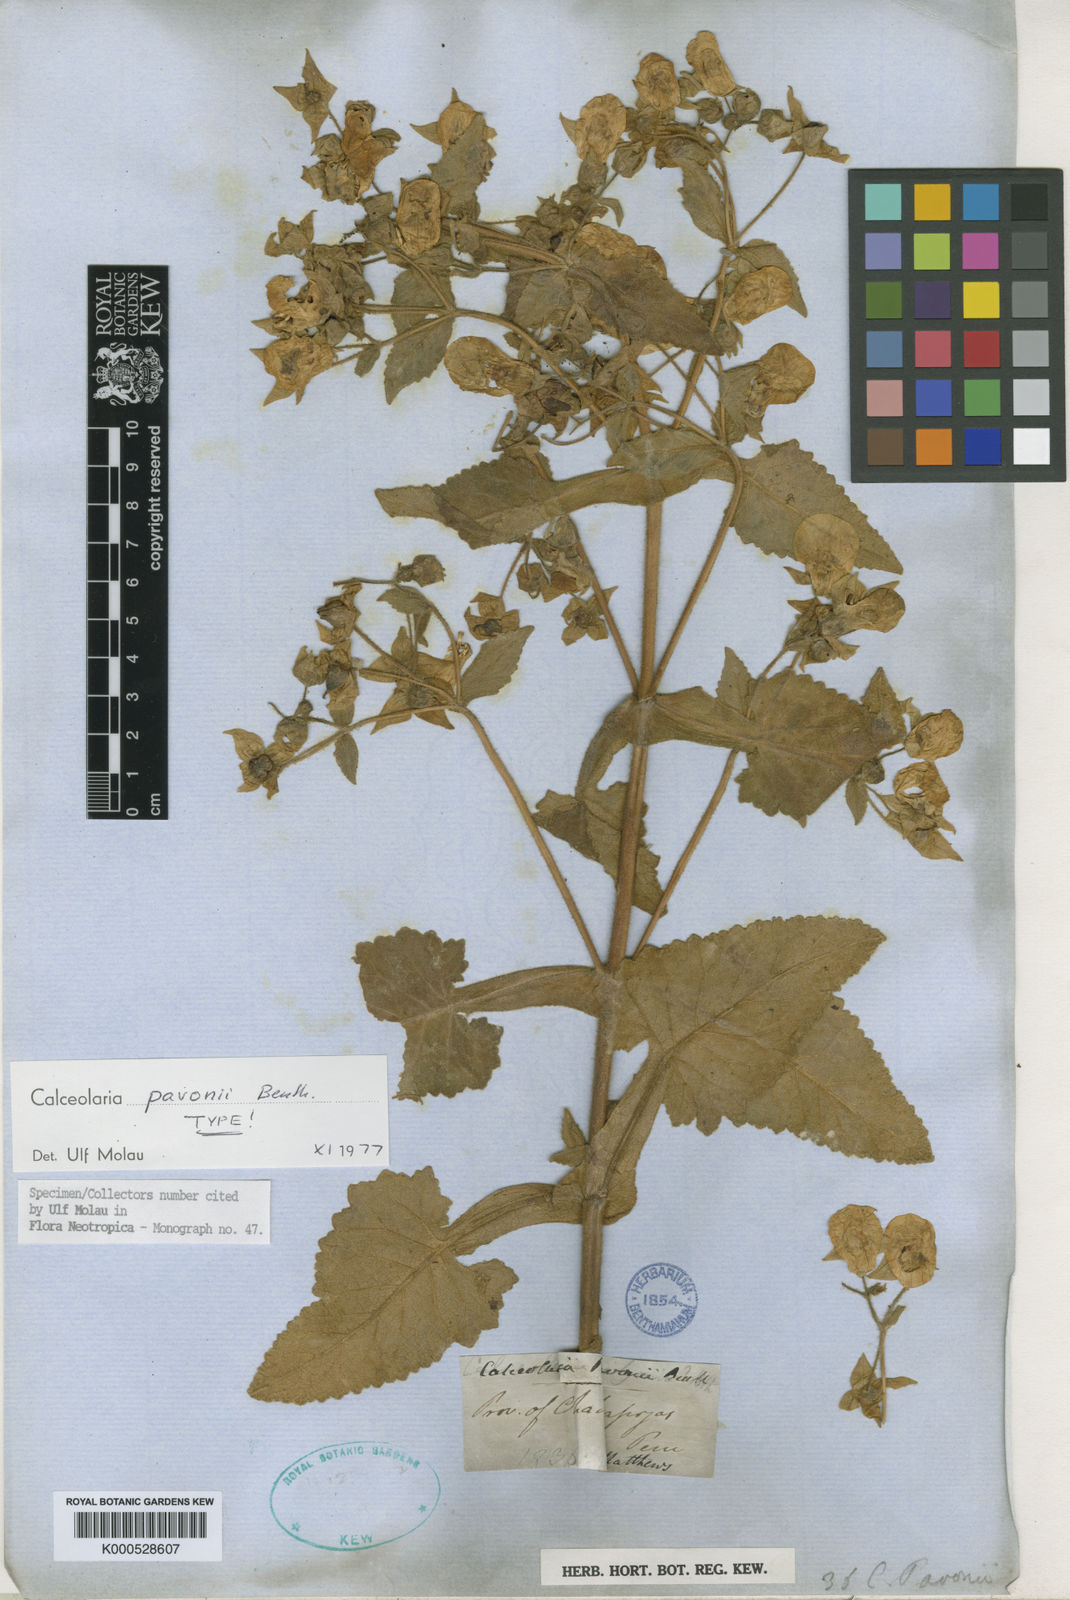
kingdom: Plantae
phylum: Tracheophyta
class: Magnoliopsida
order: Lamiales
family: Calceolariaceae
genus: Calceolaria
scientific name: Calceolaria pavonii
